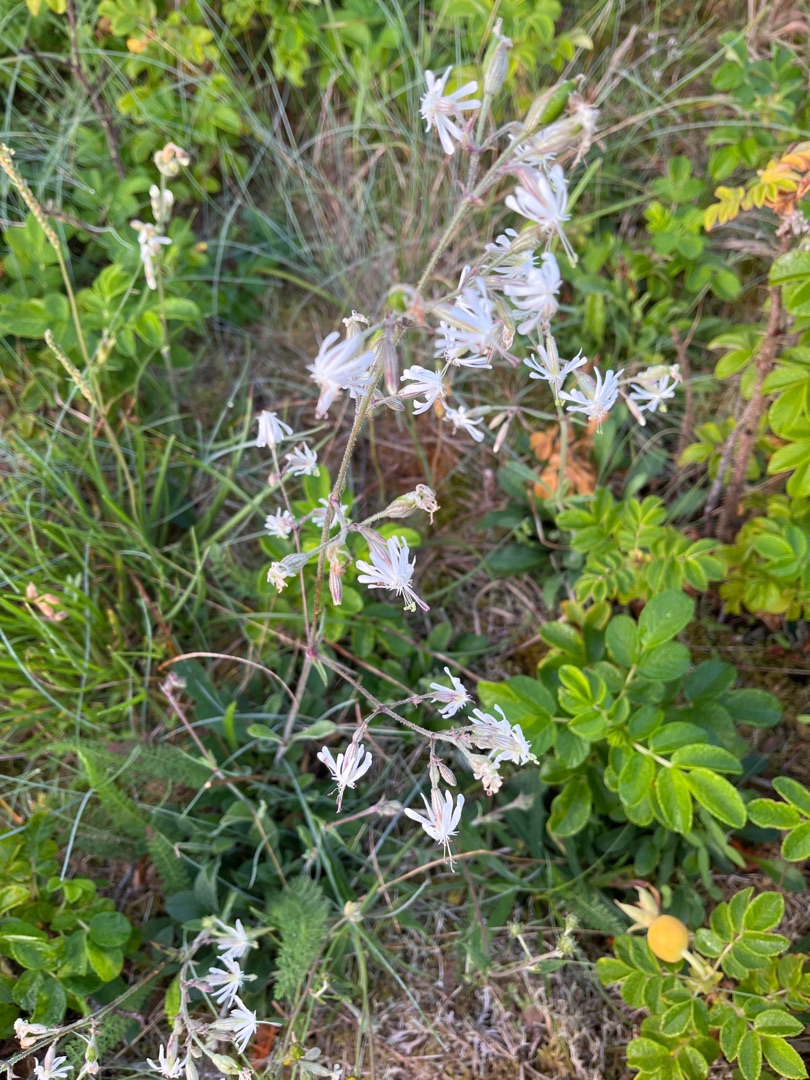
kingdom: Plantae
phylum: Tracheophyta
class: Magnoliopsida
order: Caryophyllales
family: Caryophyllaceae
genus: Silene
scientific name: Silene nutans
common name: Nikkende limurt
